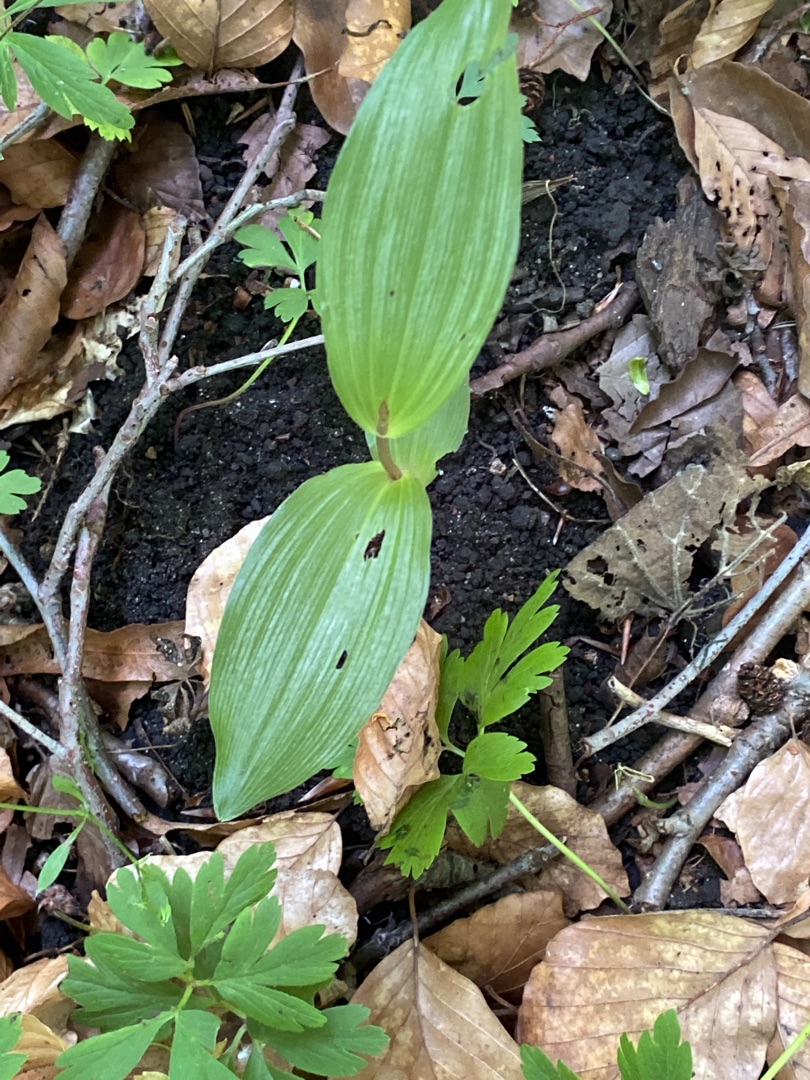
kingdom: Plantae
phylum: Tracheophyta
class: Liliopsida
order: Asparagales
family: Orchidaceae
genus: Epipactis
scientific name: Epipactis helleborine
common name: Skov-hullæbe
